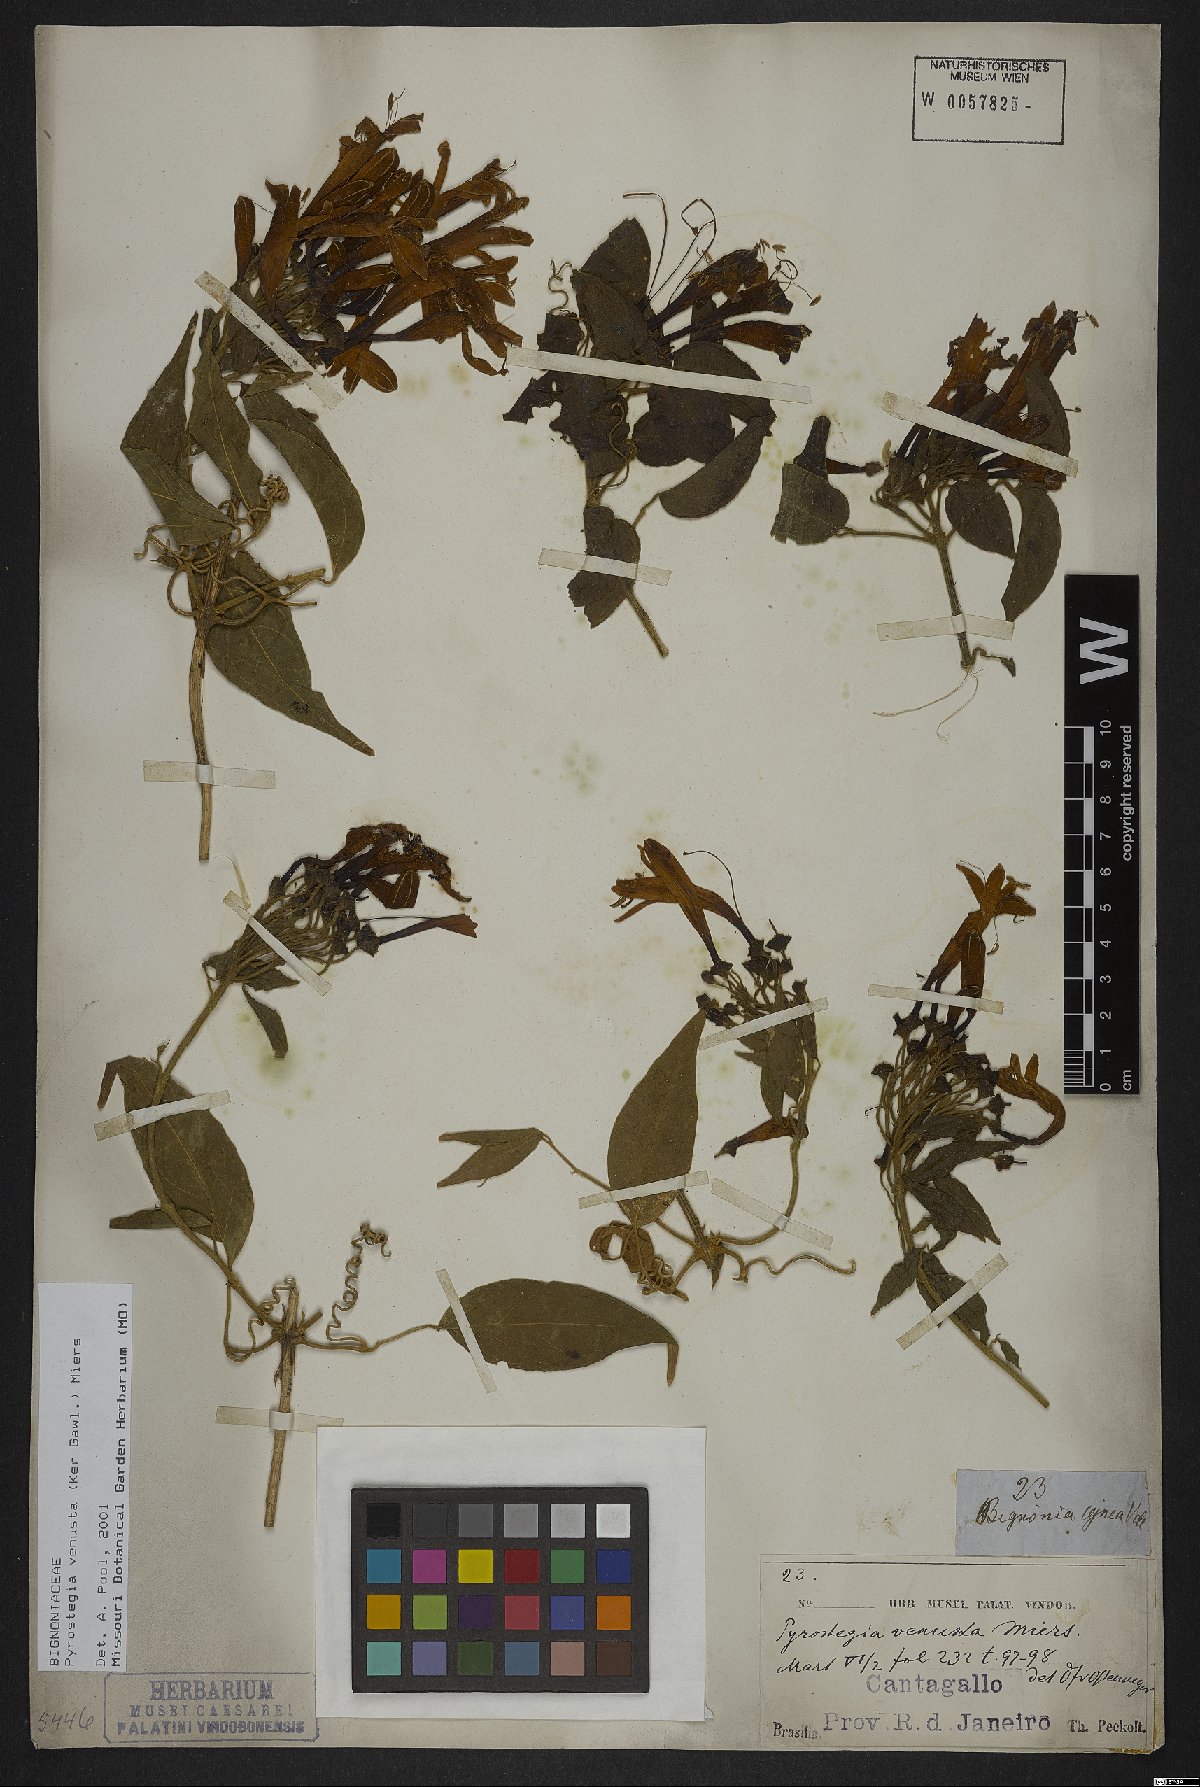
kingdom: Plantae
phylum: Tracheophyta
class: Magnoliopsida
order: Lamiales
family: Bignoniaceae
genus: Pyrostegia
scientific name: Pyrostegia venusta
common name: Flamevine
